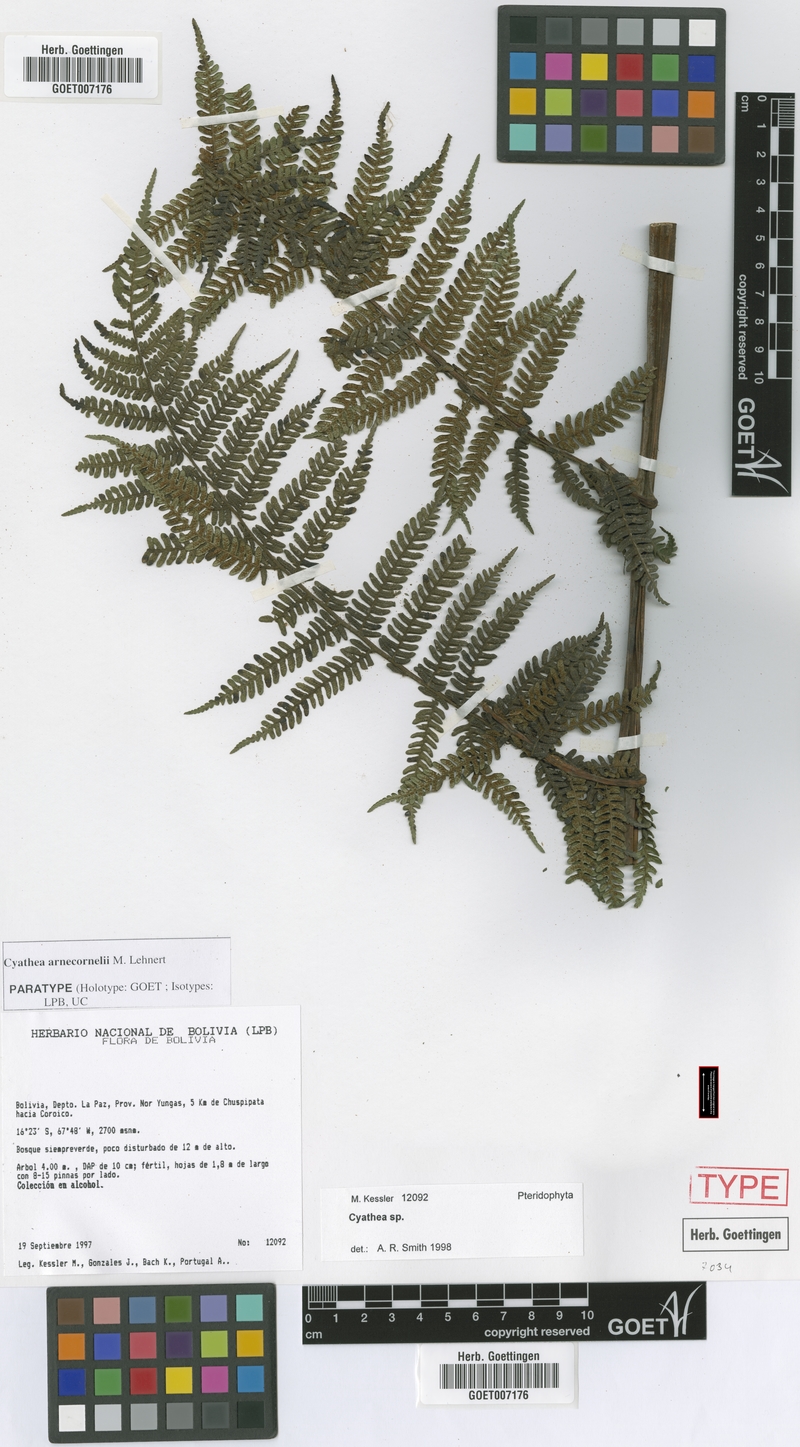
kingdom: Plantae
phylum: Tracheophyta
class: Polypodiopsida
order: Cyatheales
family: Cyatheaceae
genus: Cyathea
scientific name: Cyathea arnecornelii
